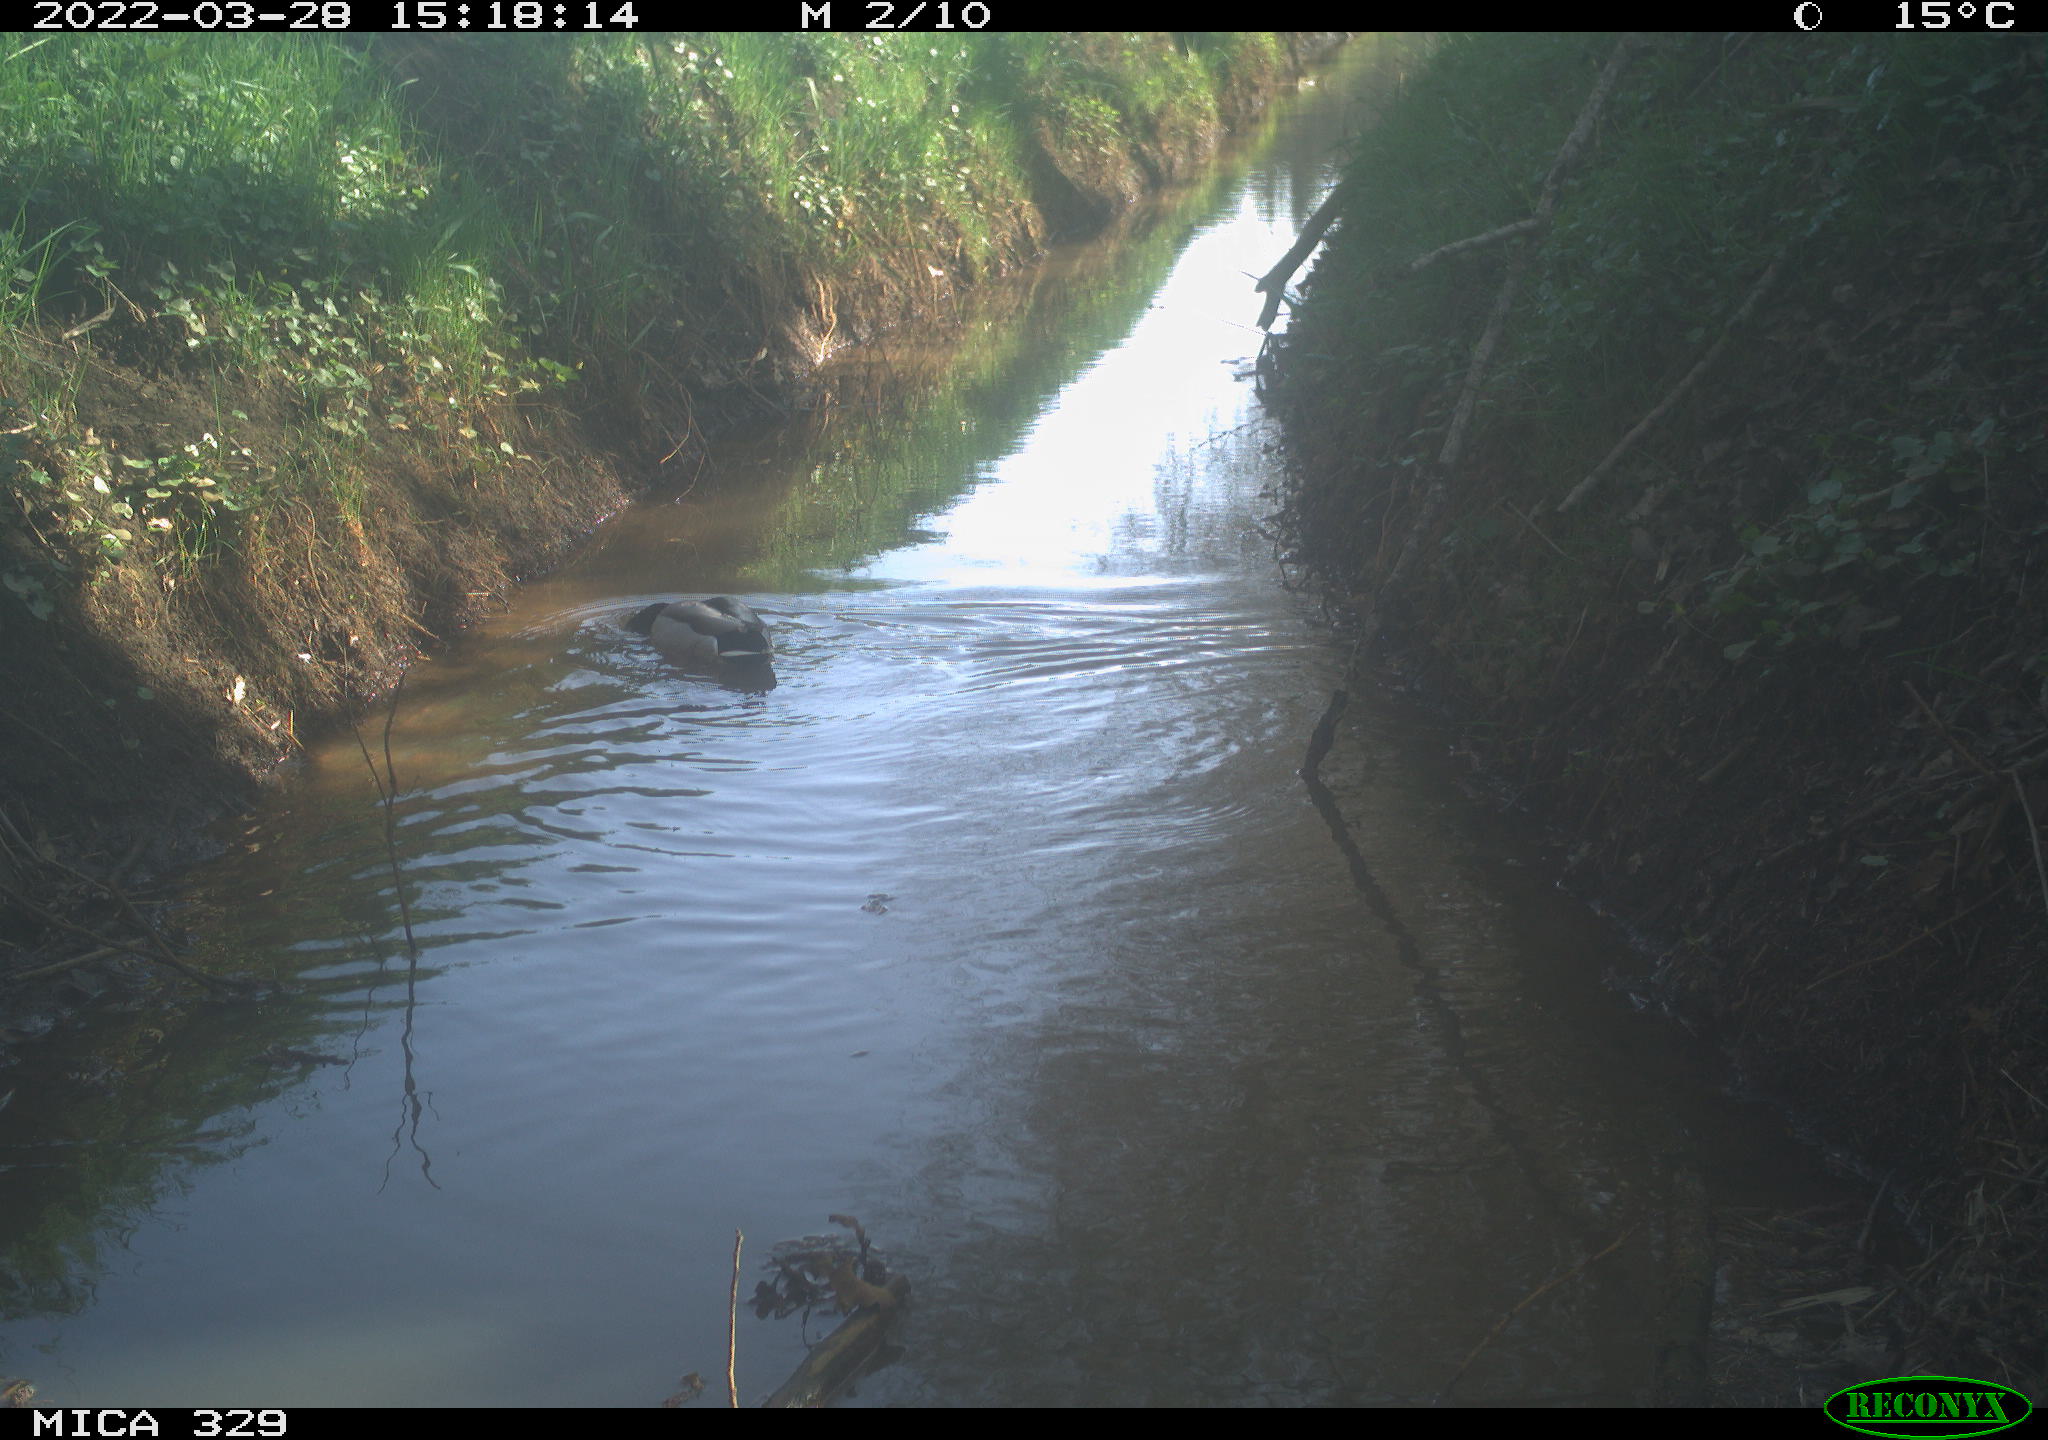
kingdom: Animalia
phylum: Chordata
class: Aves
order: Anseriformes
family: Anatidae
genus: Anas
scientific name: Anas platyrhynchos
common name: Mallard
